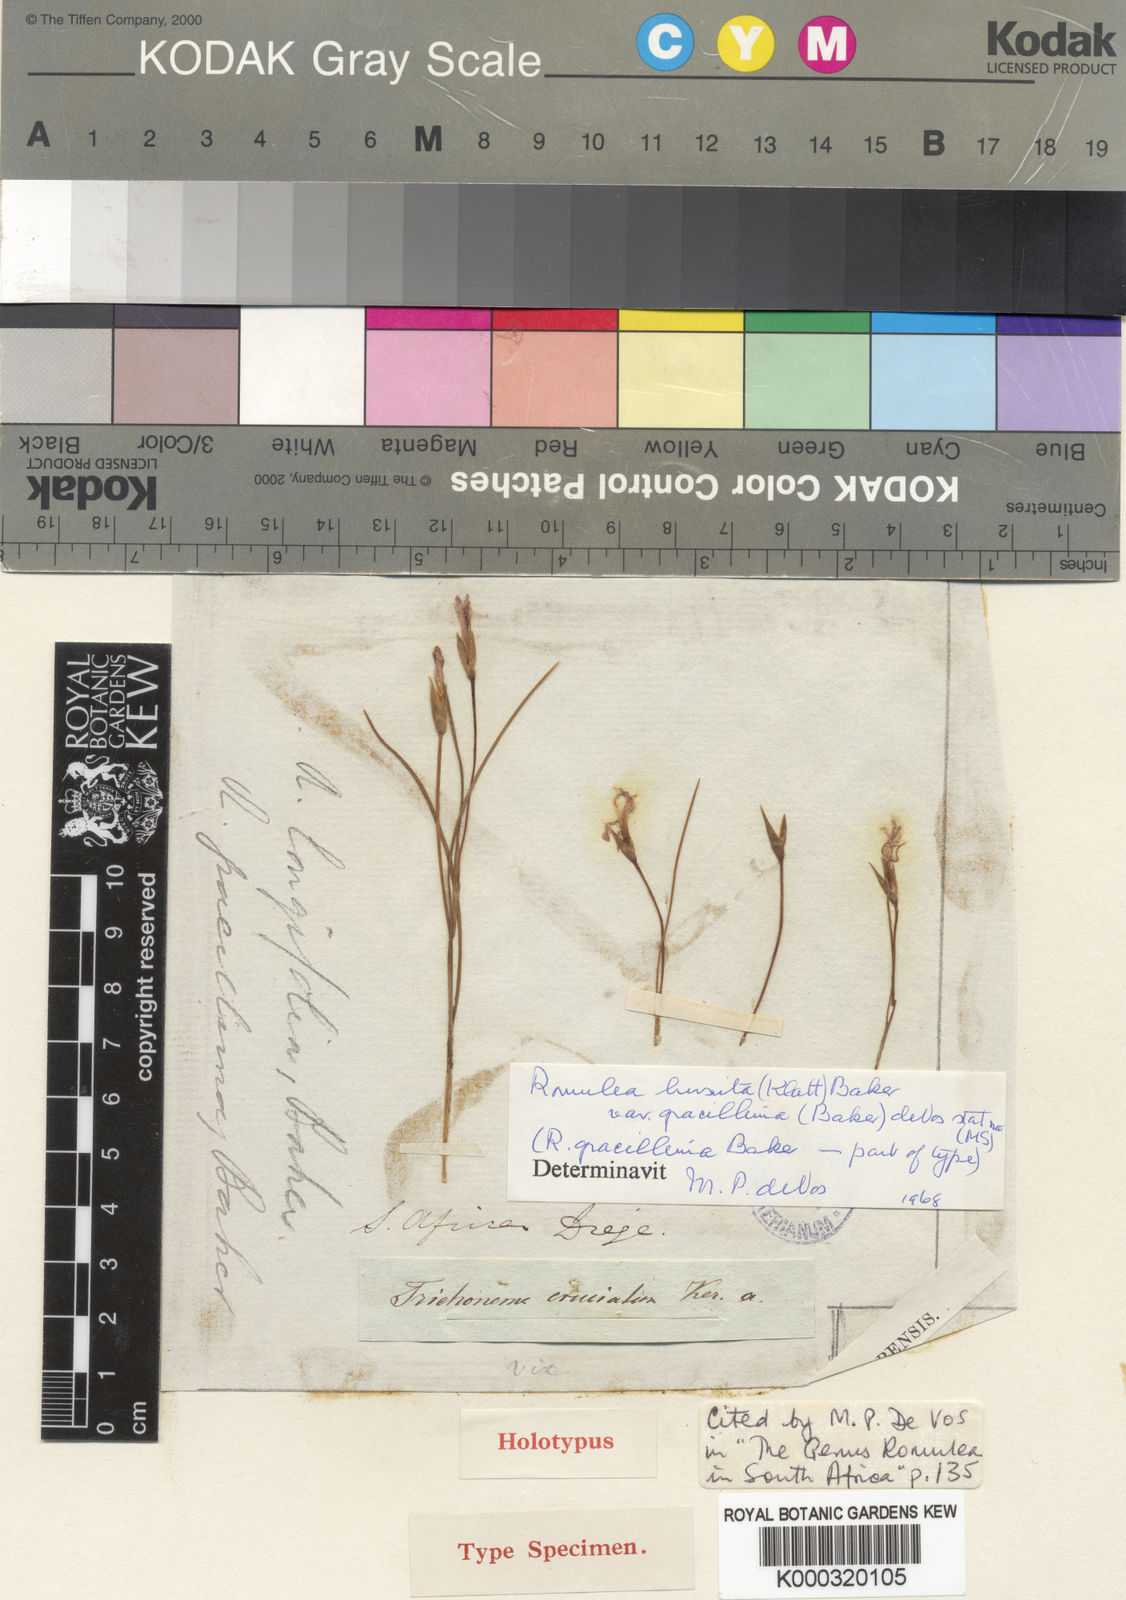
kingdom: Plantae
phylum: Tracheophyta
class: Liliopsida
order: Asparagales
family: Iridaceae
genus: Romulea
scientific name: Romulea gracillima
